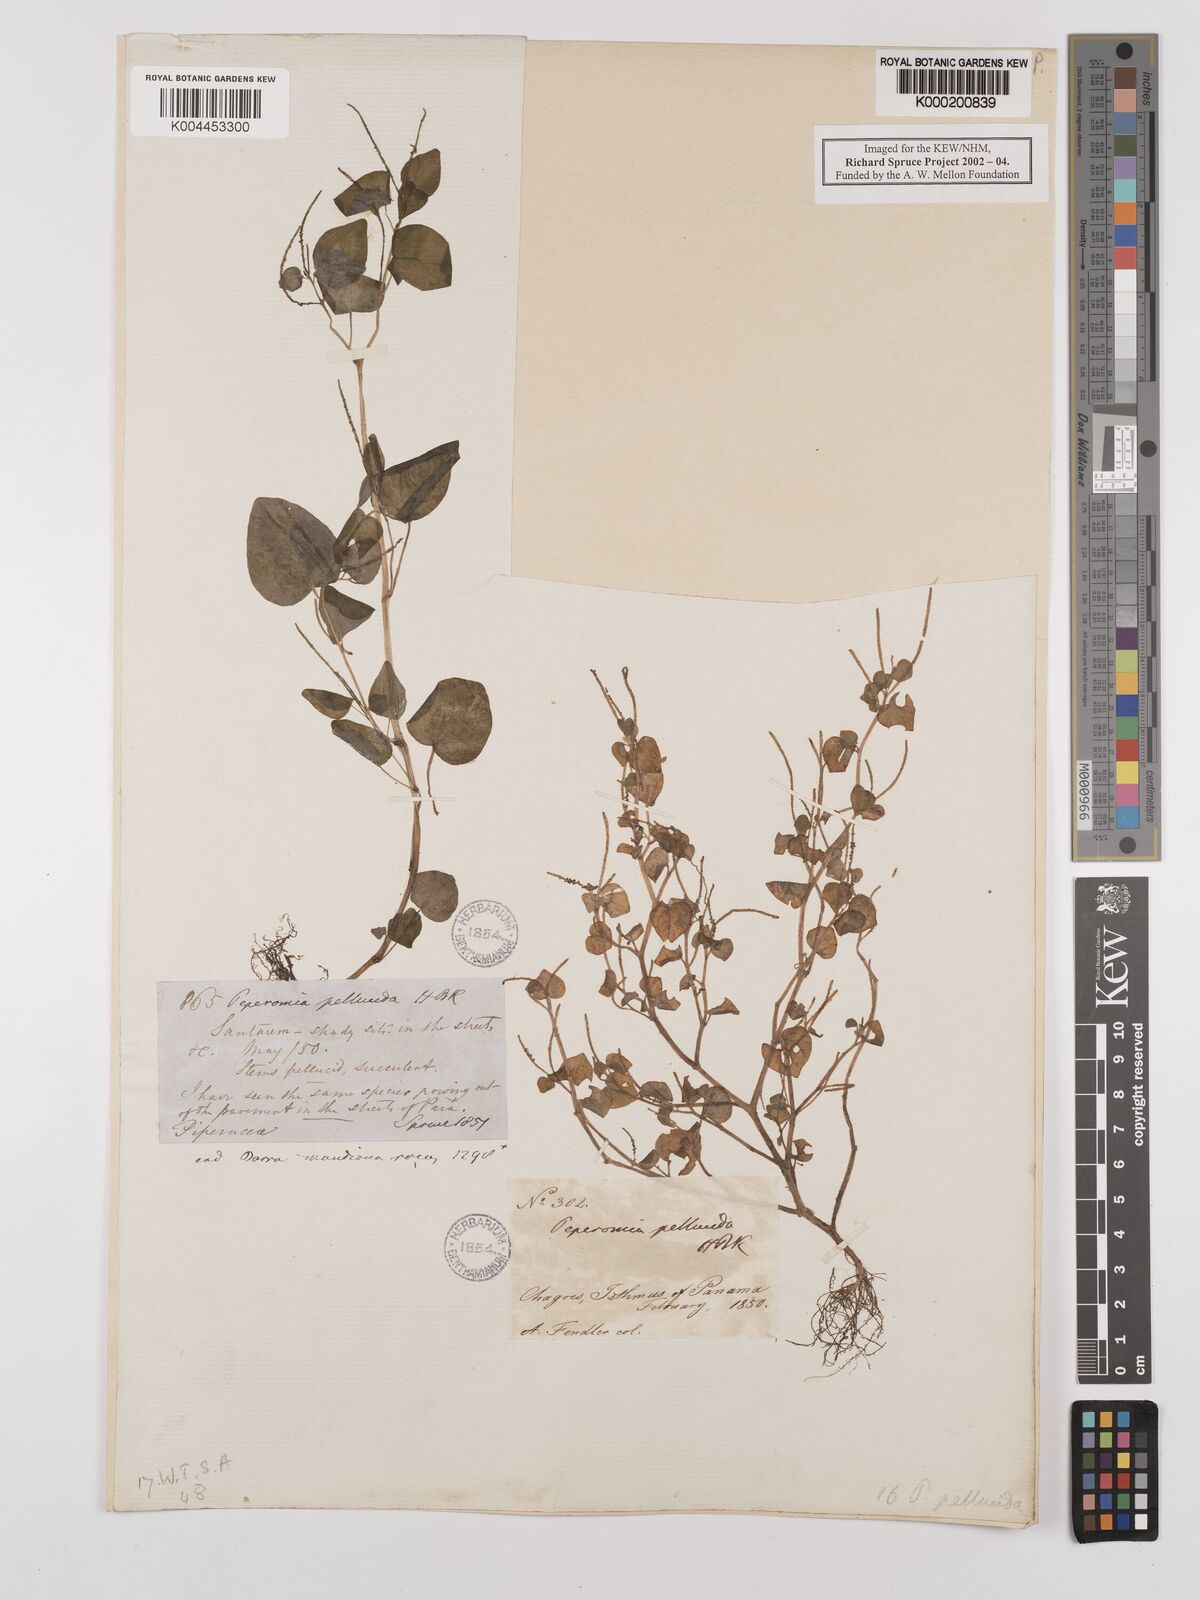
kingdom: Plantae
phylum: Tracheophyta
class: Magnoliopsida
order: Piperales
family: Piperaceae
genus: Peperomia
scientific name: Peperomia pellucida
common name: Man to man
